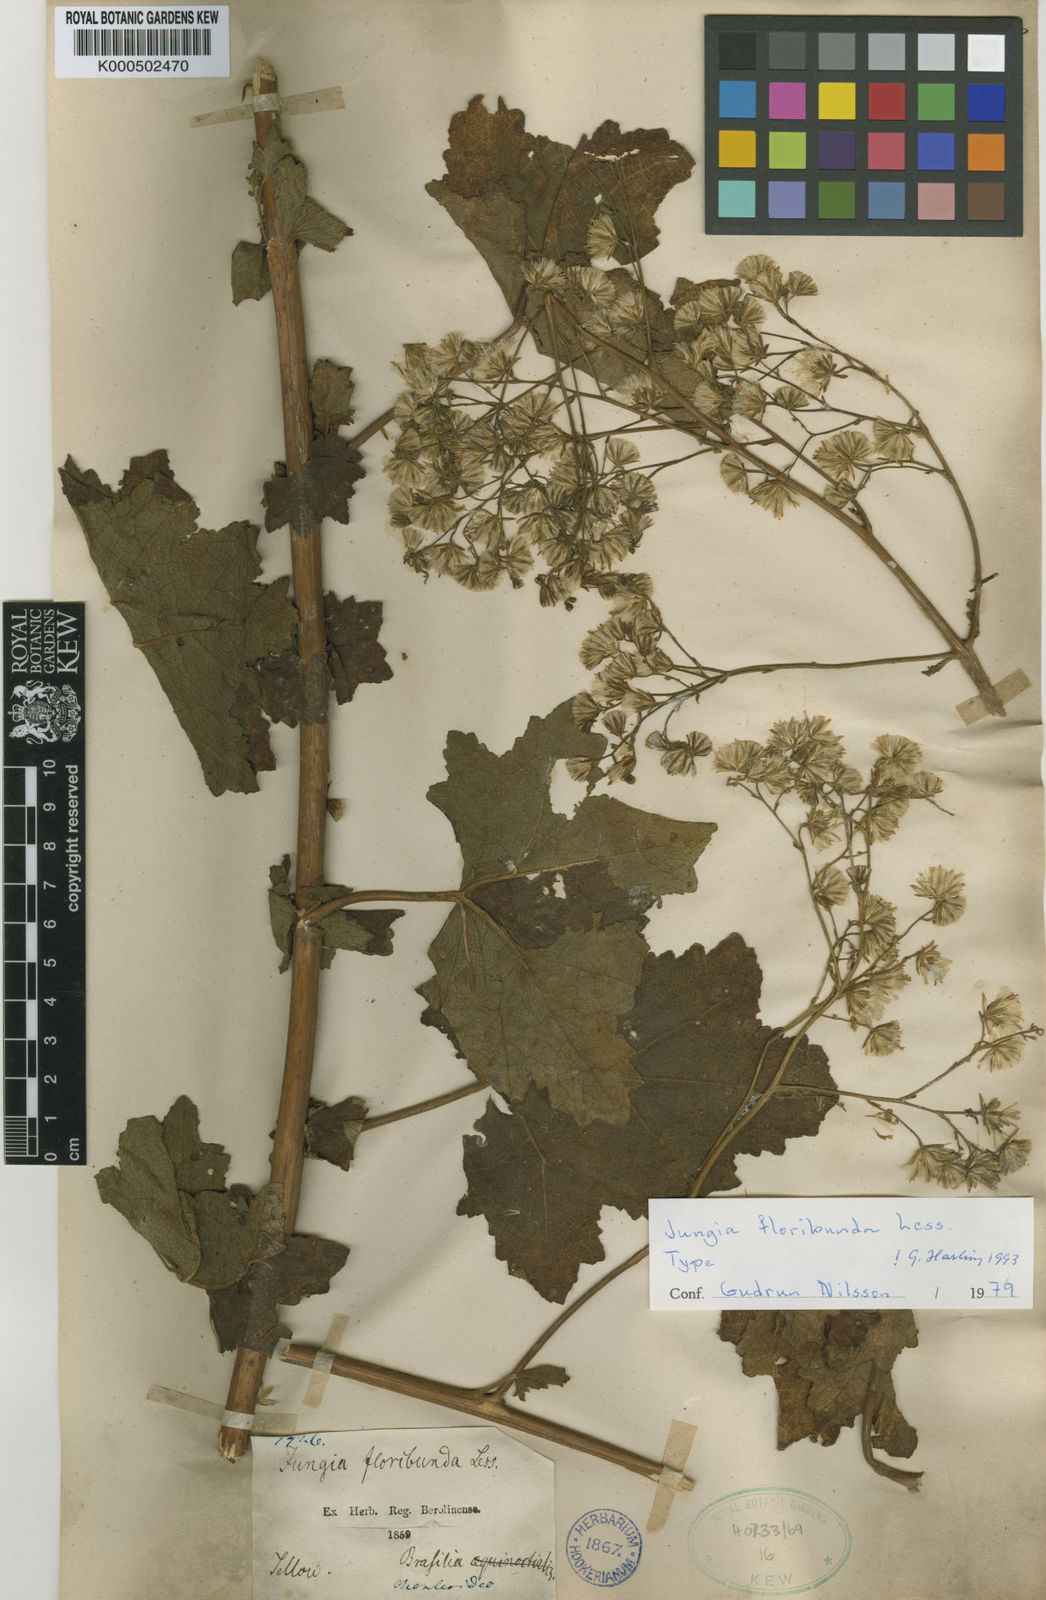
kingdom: Plantae
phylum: Tracheophyta
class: Magnoliopsida
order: Asterales
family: Asteraceae
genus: Jungia
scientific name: Jungia floribunda
